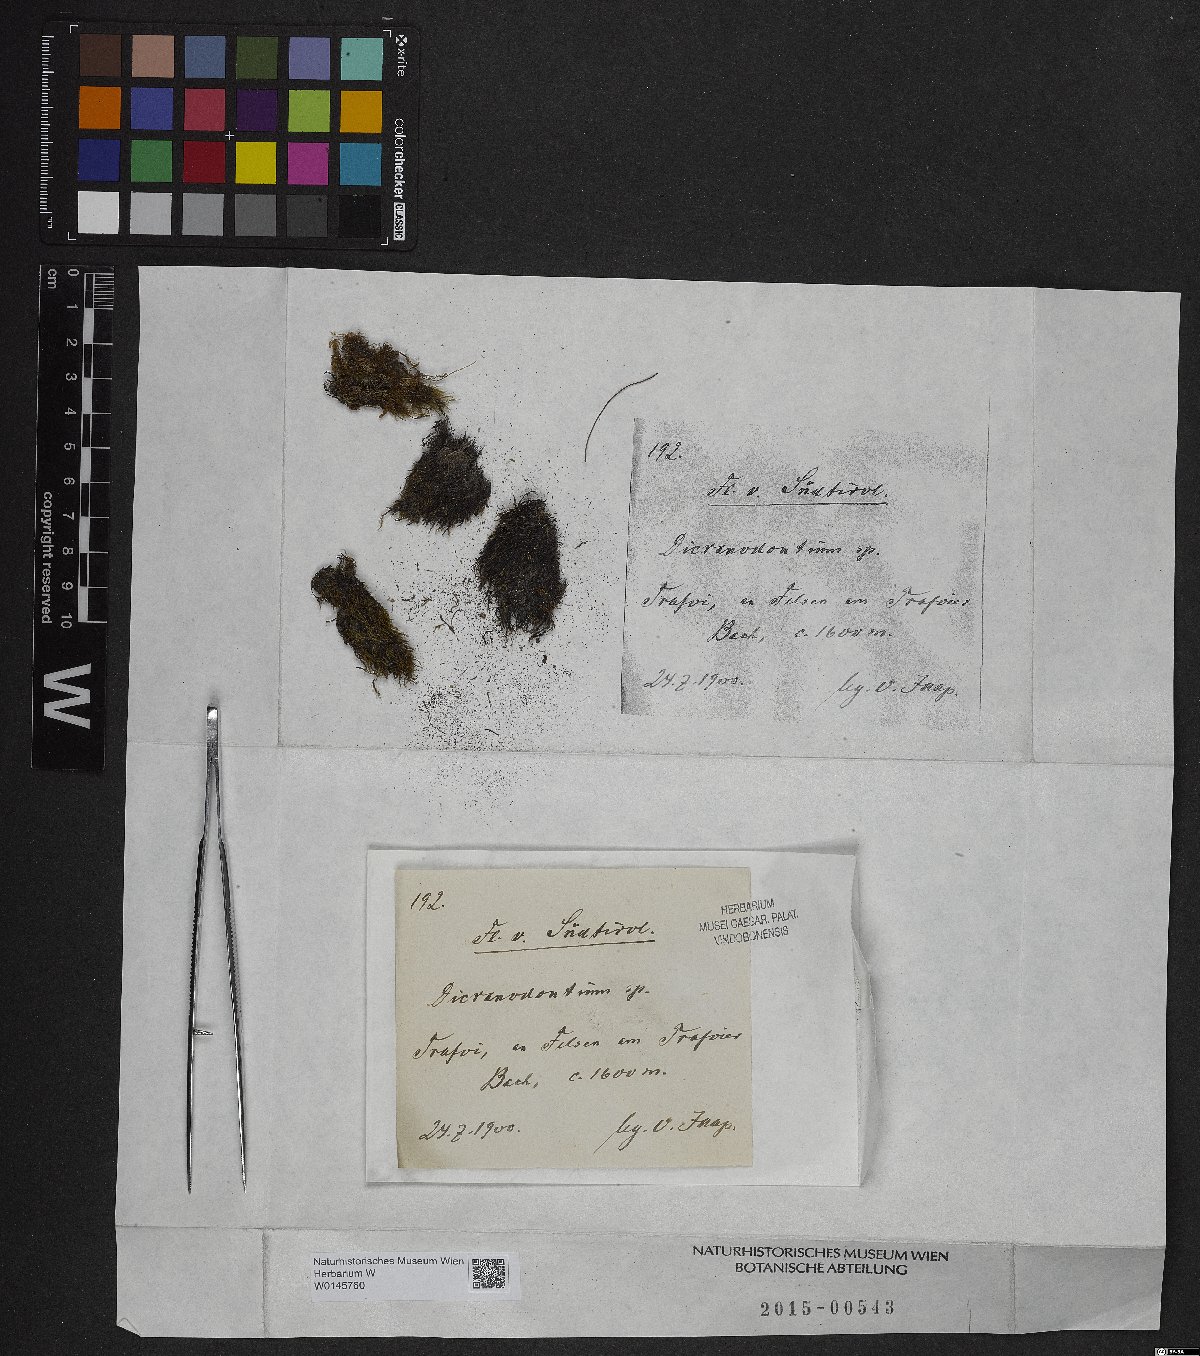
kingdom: Plantae
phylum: Bryophyta
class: Bryopsida
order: Dicranales
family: Leucobryaceae
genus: Dicranodontium
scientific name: Dicranodontium
